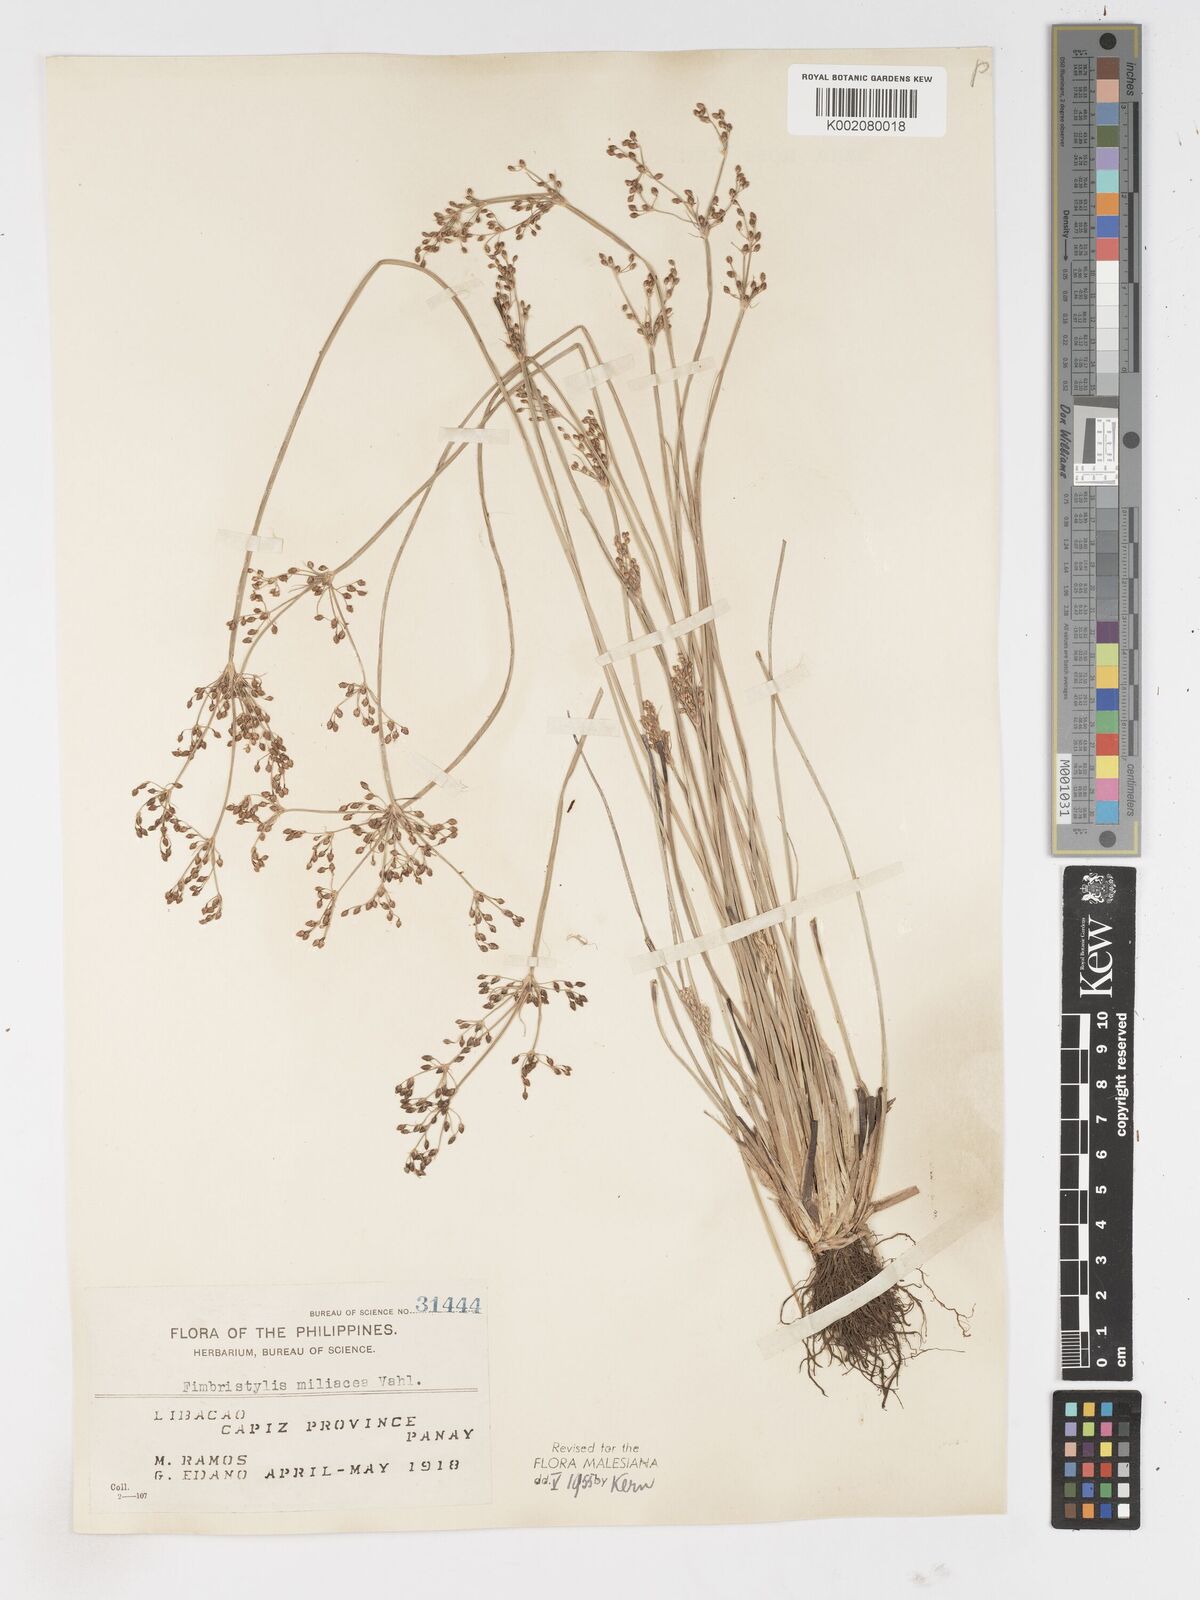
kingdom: Plantae
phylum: Tracheophyta
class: Liliopsida
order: Poales
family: Cyperaceae
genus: Fimbristylis
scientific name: Fimbristylis littoralis
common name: Fimbry
